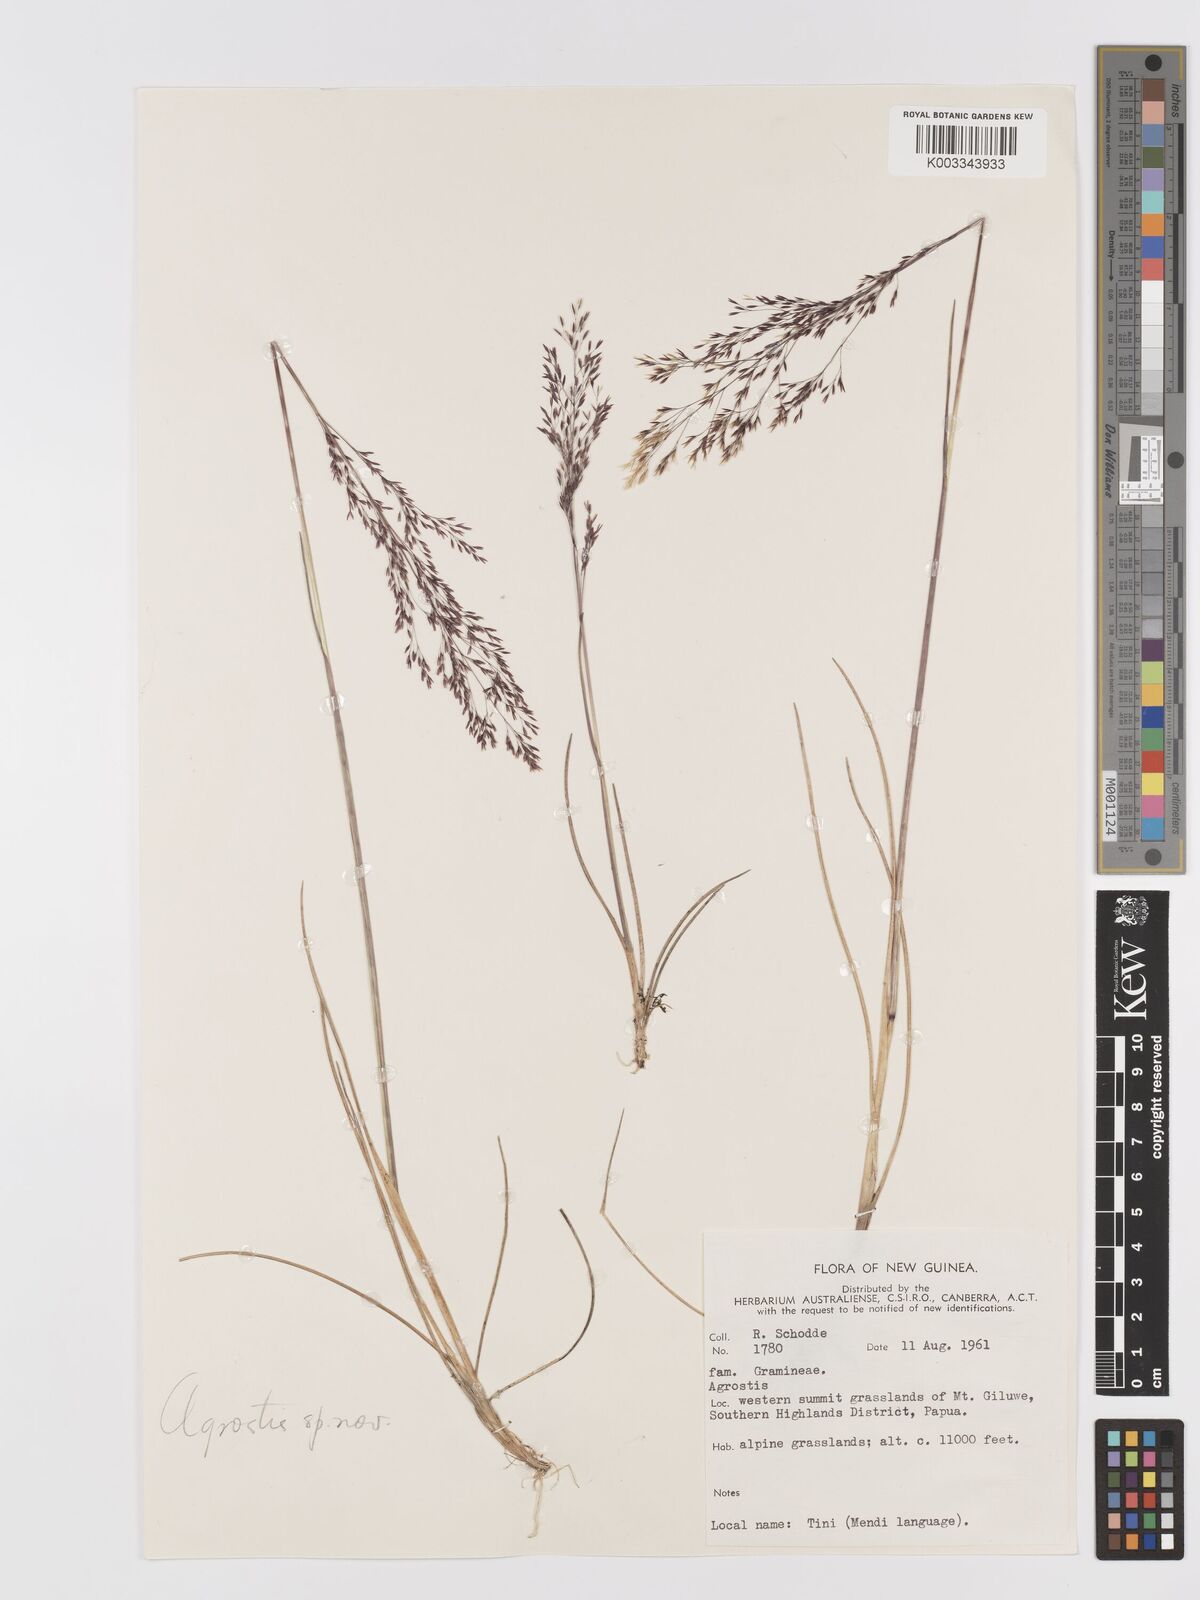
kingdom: Plantae
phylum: Tracheophyta
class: Liliopsida
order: Poales
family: Poaceae
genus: Agrostis
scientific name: Agrostis infirma
